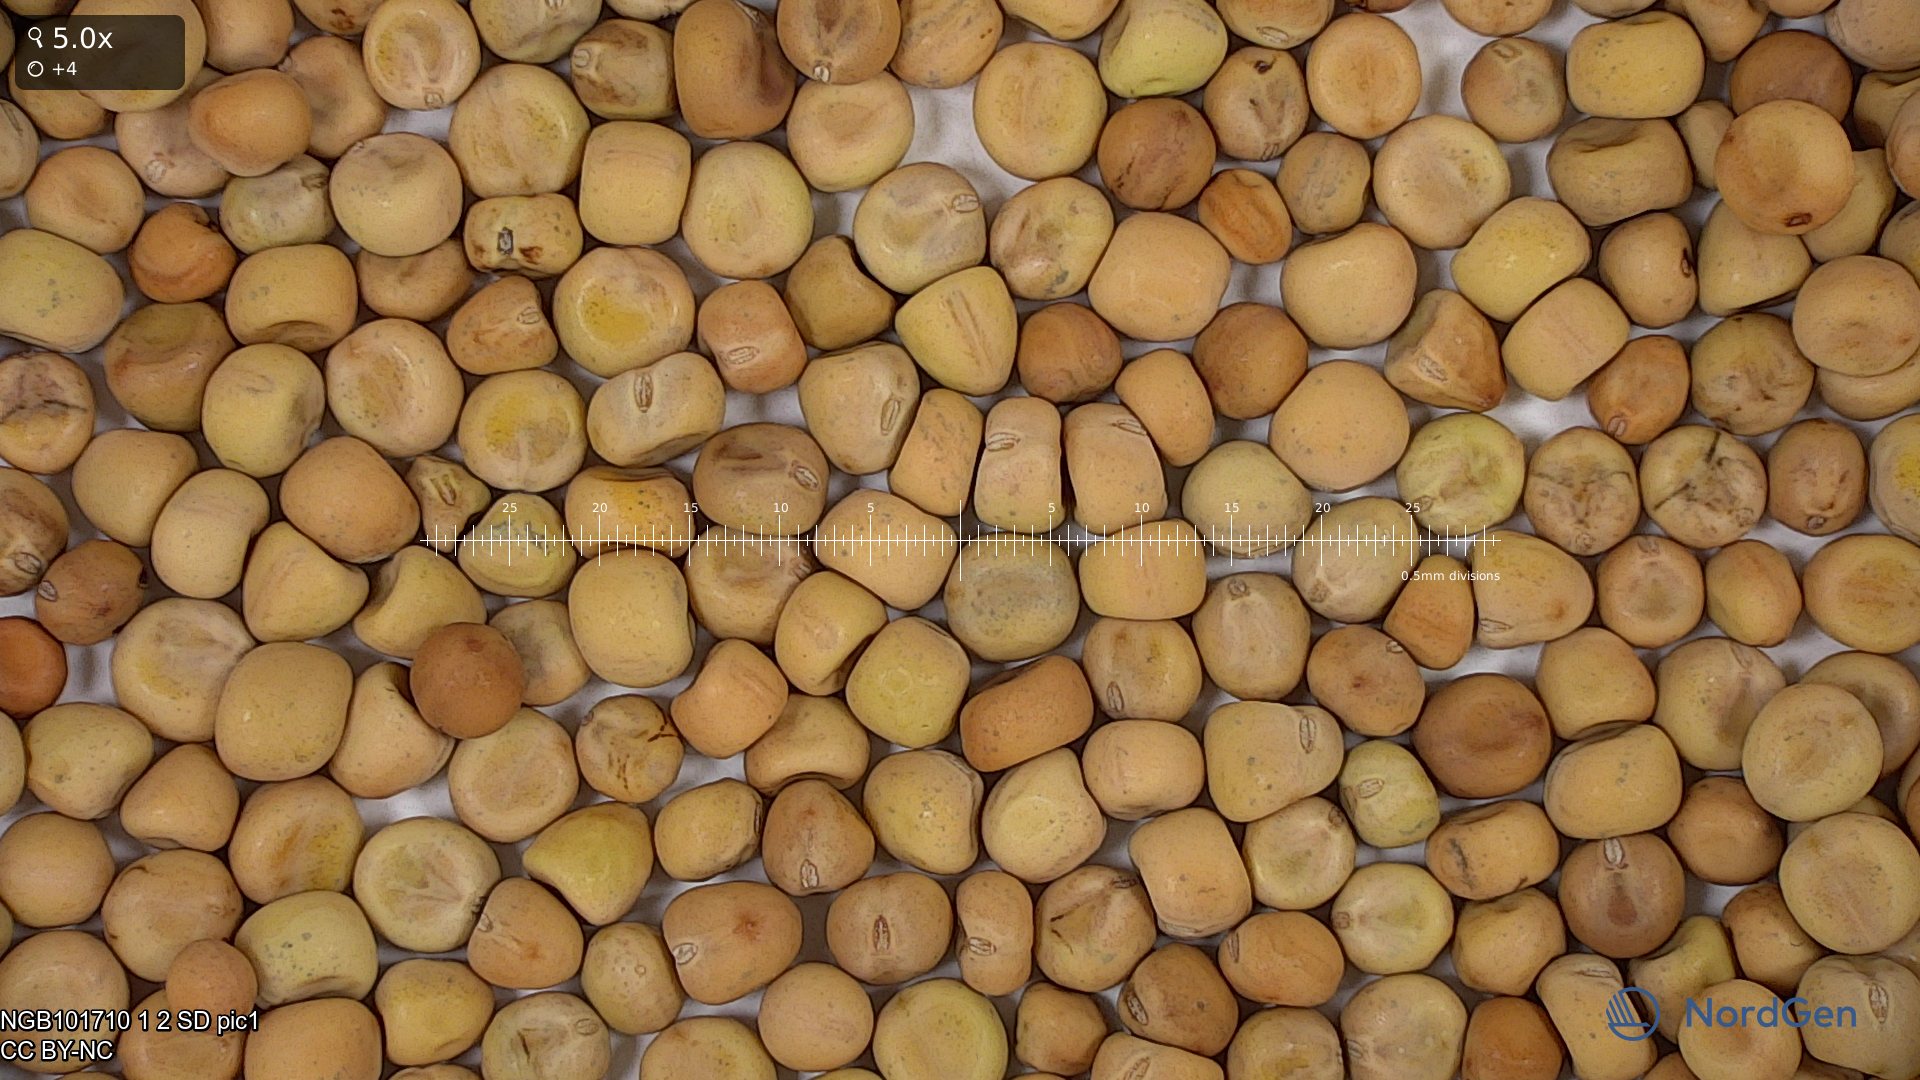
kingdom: Plantae
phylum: Tracheophyta
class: Magnoliopsida
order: Fabales
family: Fabaceae
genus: Lathyrus
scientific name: Lathyrus oleraceus
